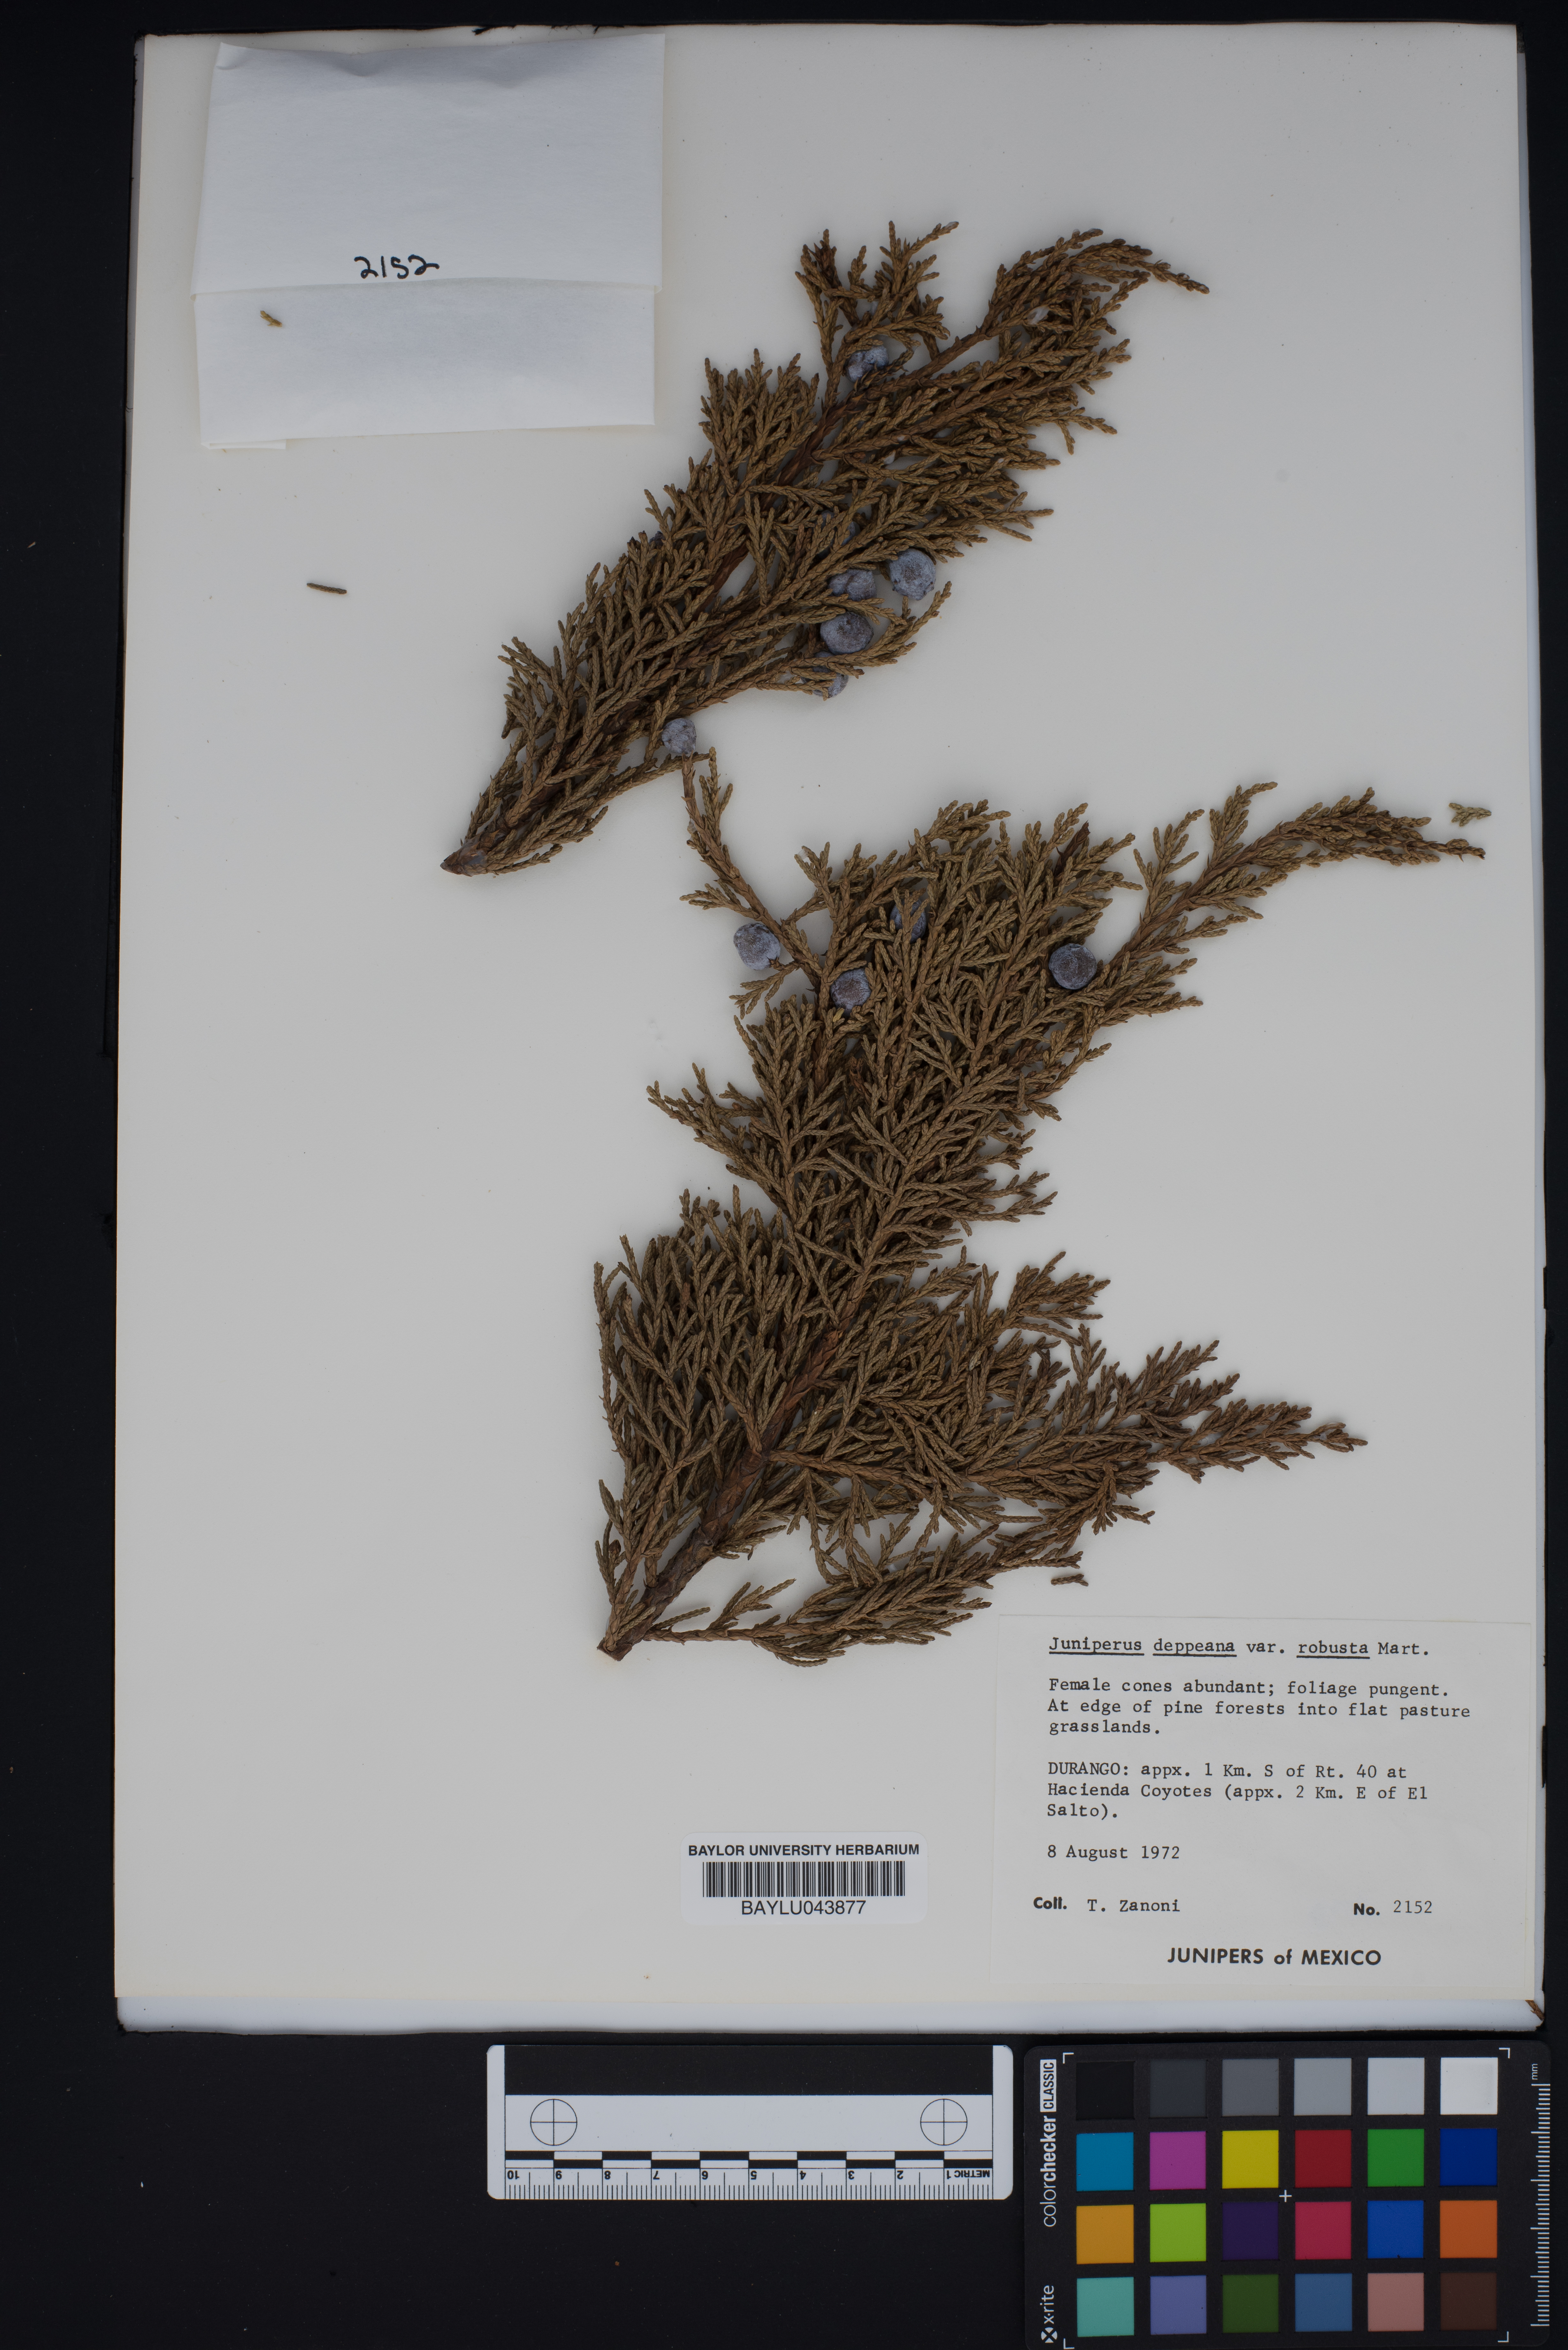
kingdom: Plantae
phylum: Tracheophyta
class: Pinopsida
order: Pinales
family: Cupressaceae
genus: Juniperus
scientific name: Juniperus deppeana
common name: Alligator juniper
